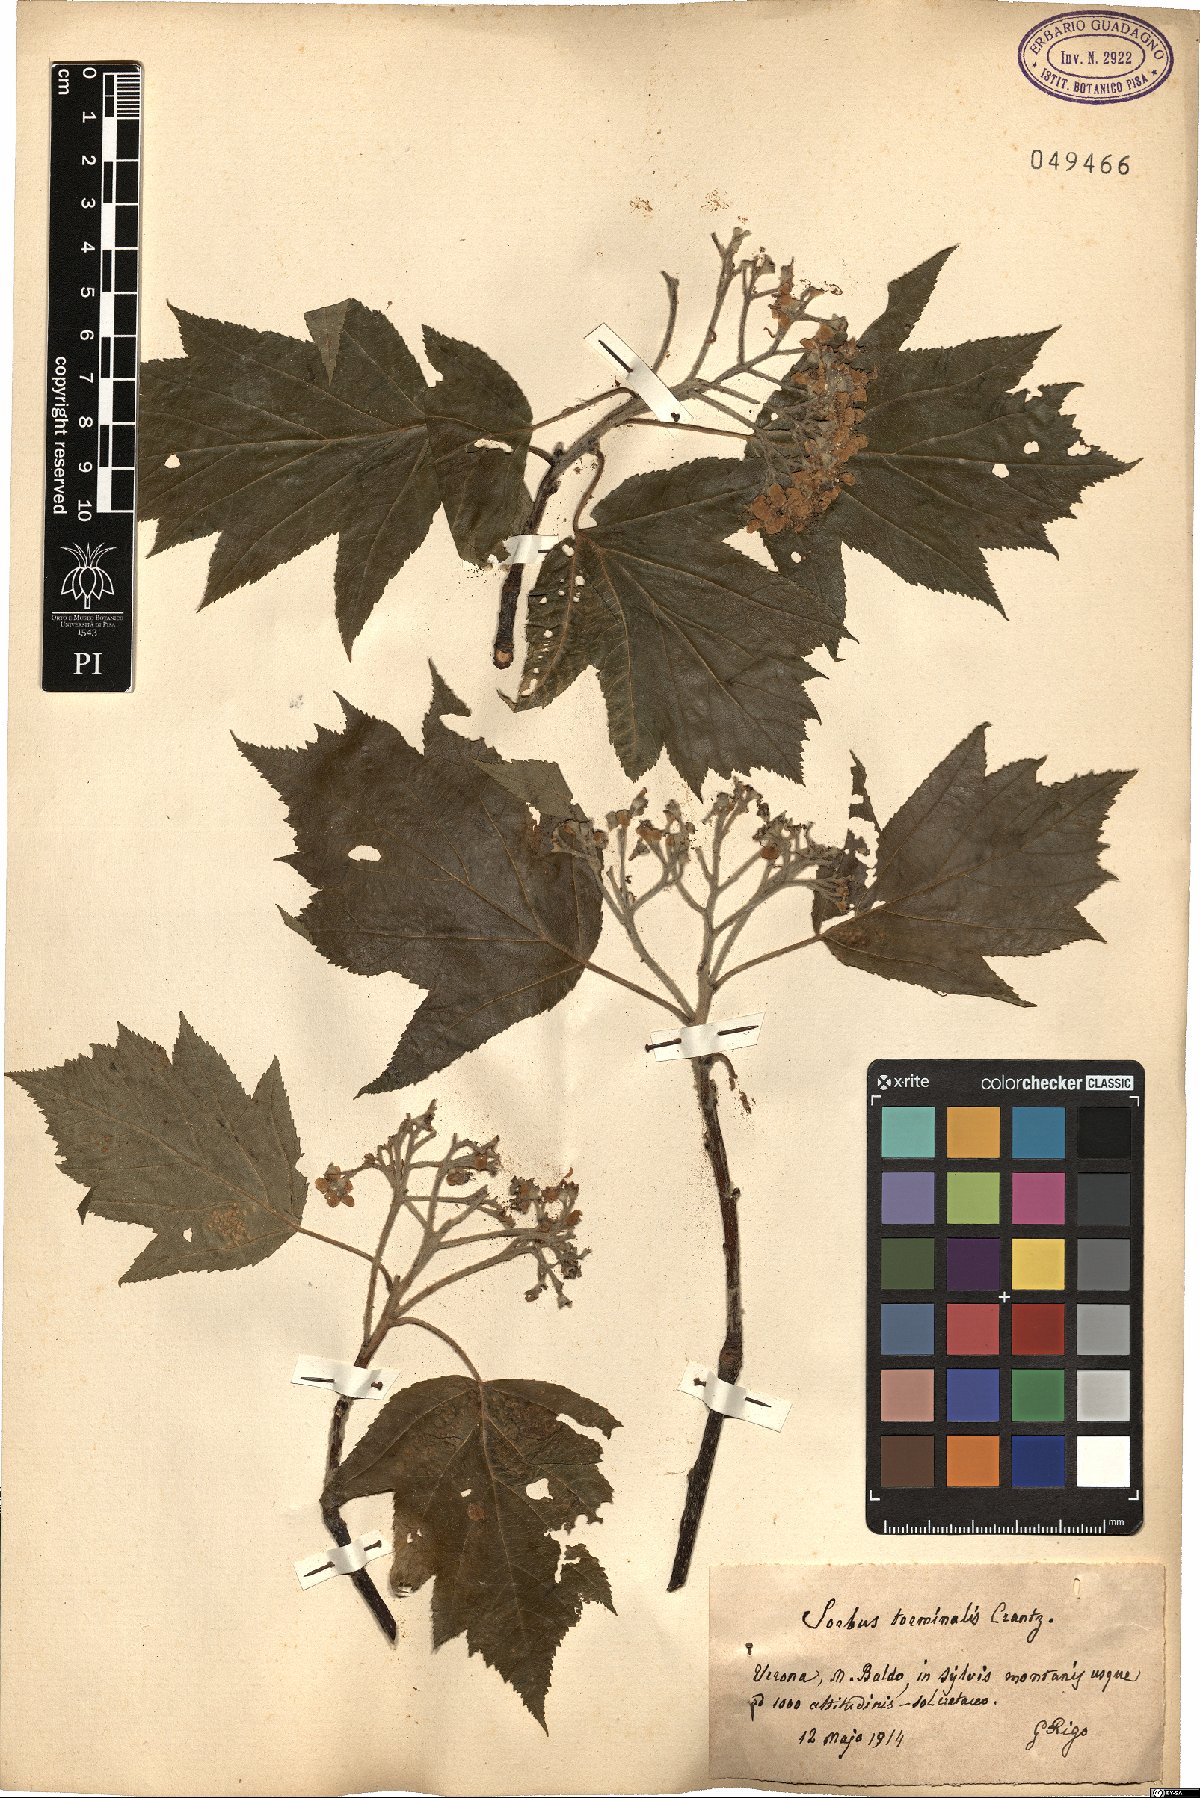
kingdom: Plantae
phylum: Tracheophyta
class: Magnoliopsida
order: Rosales
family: Rosaceae
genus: Torminalis
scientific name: Torminalis glaberrima
